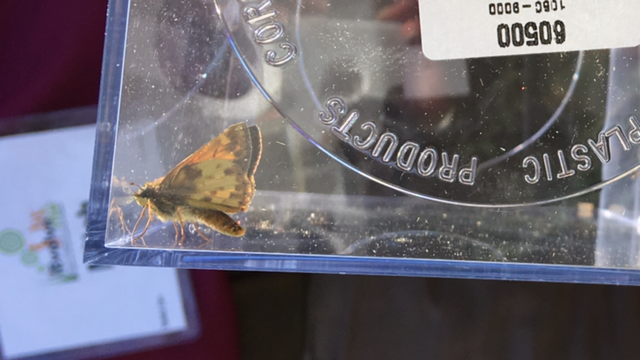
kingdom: Animalia
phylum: Arthropoda
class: Insecta
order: Lepidoptera
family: Hesperiidae
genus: Lon
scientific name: Lon zabulon
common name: Zabulon Skipper
